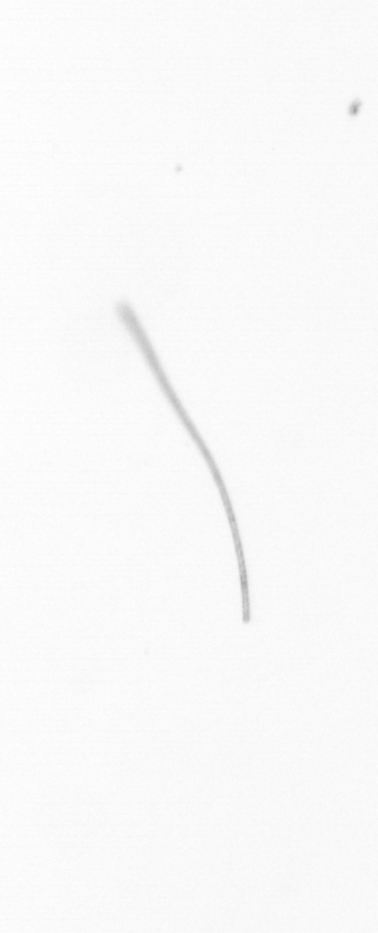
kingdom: Chromista
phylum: Ochrophyta
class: Bacillariophyceae
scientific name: Bacillariophyceae
